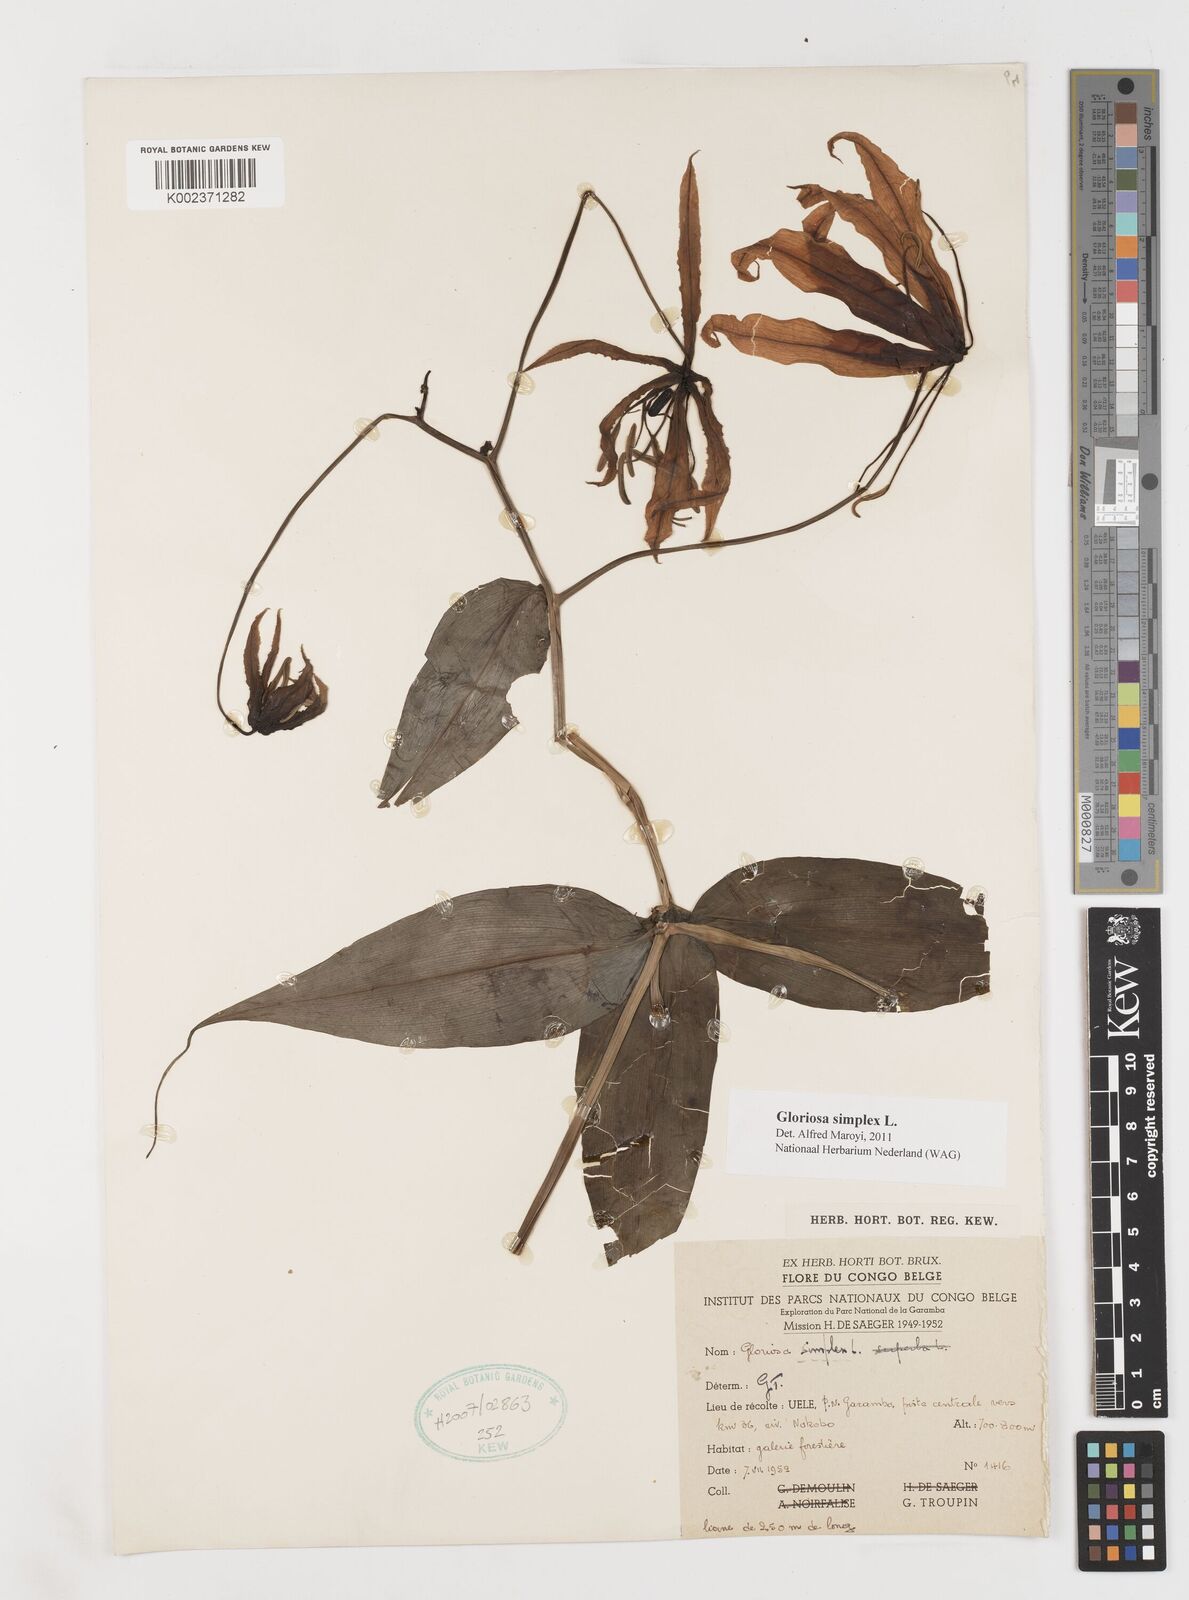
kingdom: Plantae
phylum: Tracheophyta
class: Liliopsida
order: Liliales
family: Colchicaceae
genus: Gloriosa
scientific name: Gloriosa simplex
